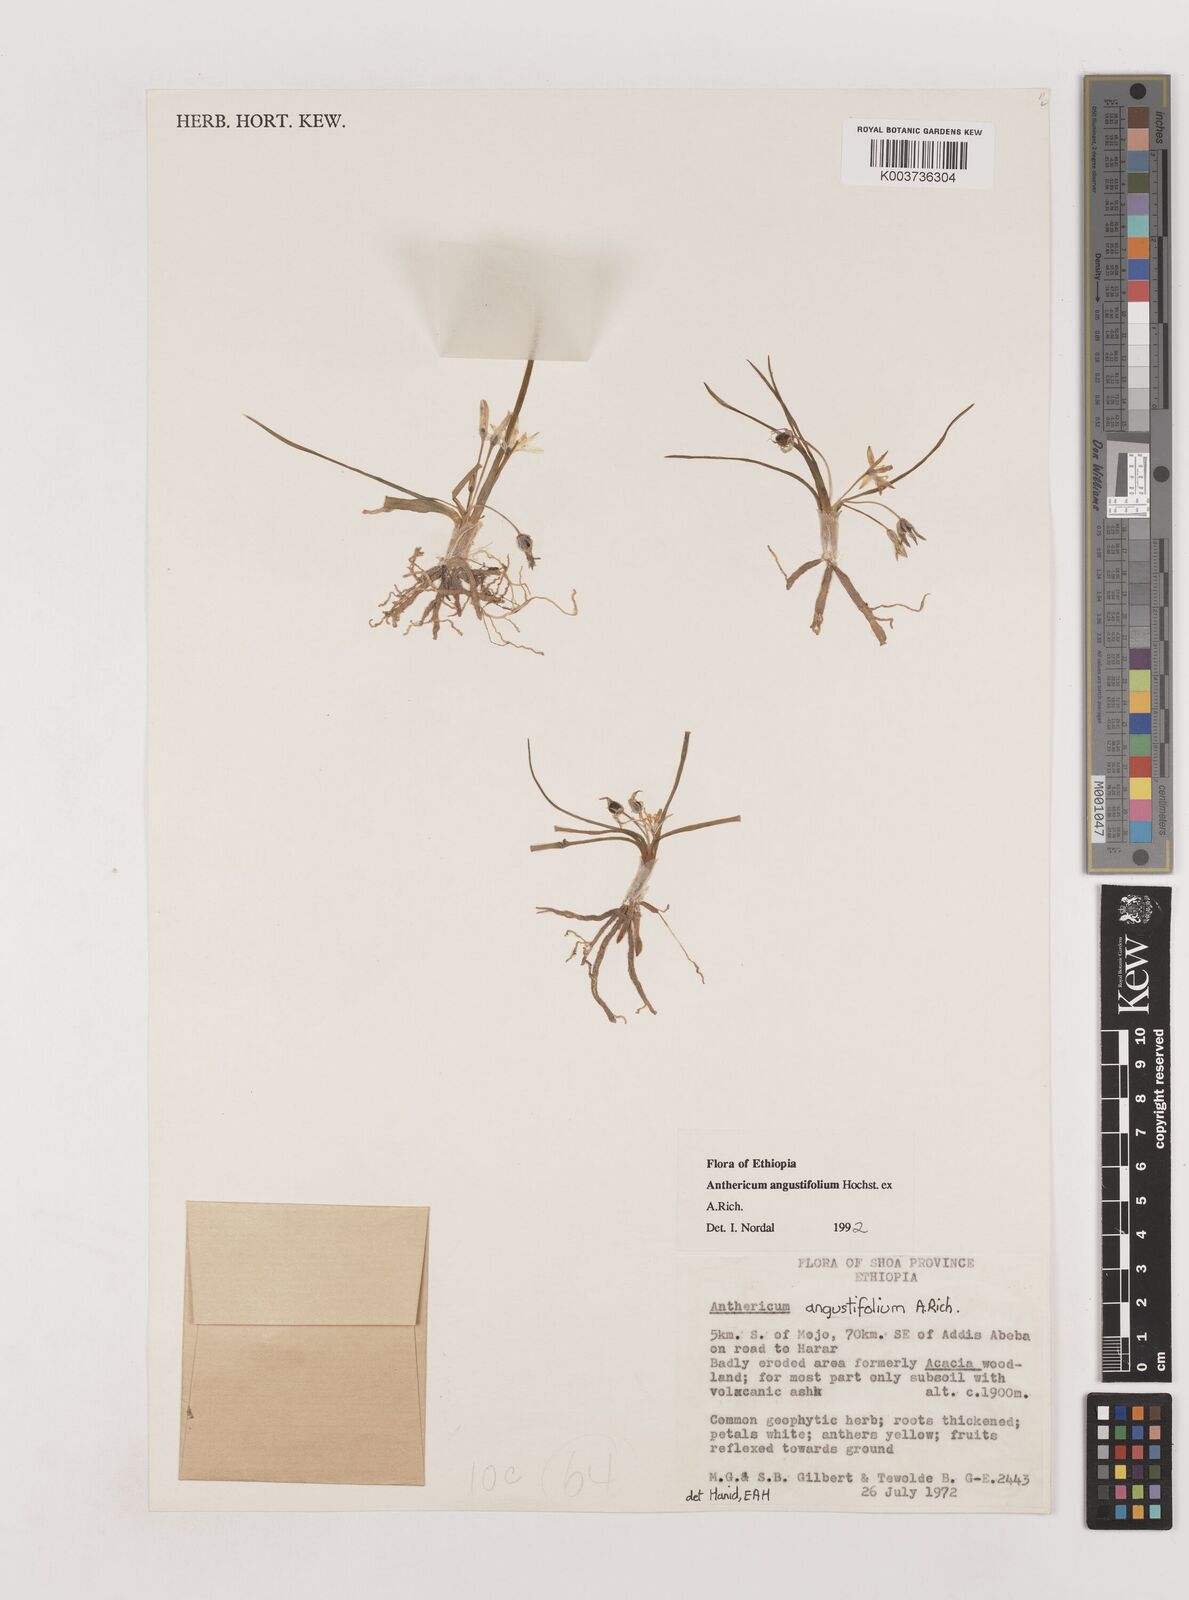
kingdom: Plantae
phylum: Tracheophyta
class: Liliopsida
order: Asparagales
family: Asparagaceae
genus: Anthericum
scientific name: Anthericum angustifolium
